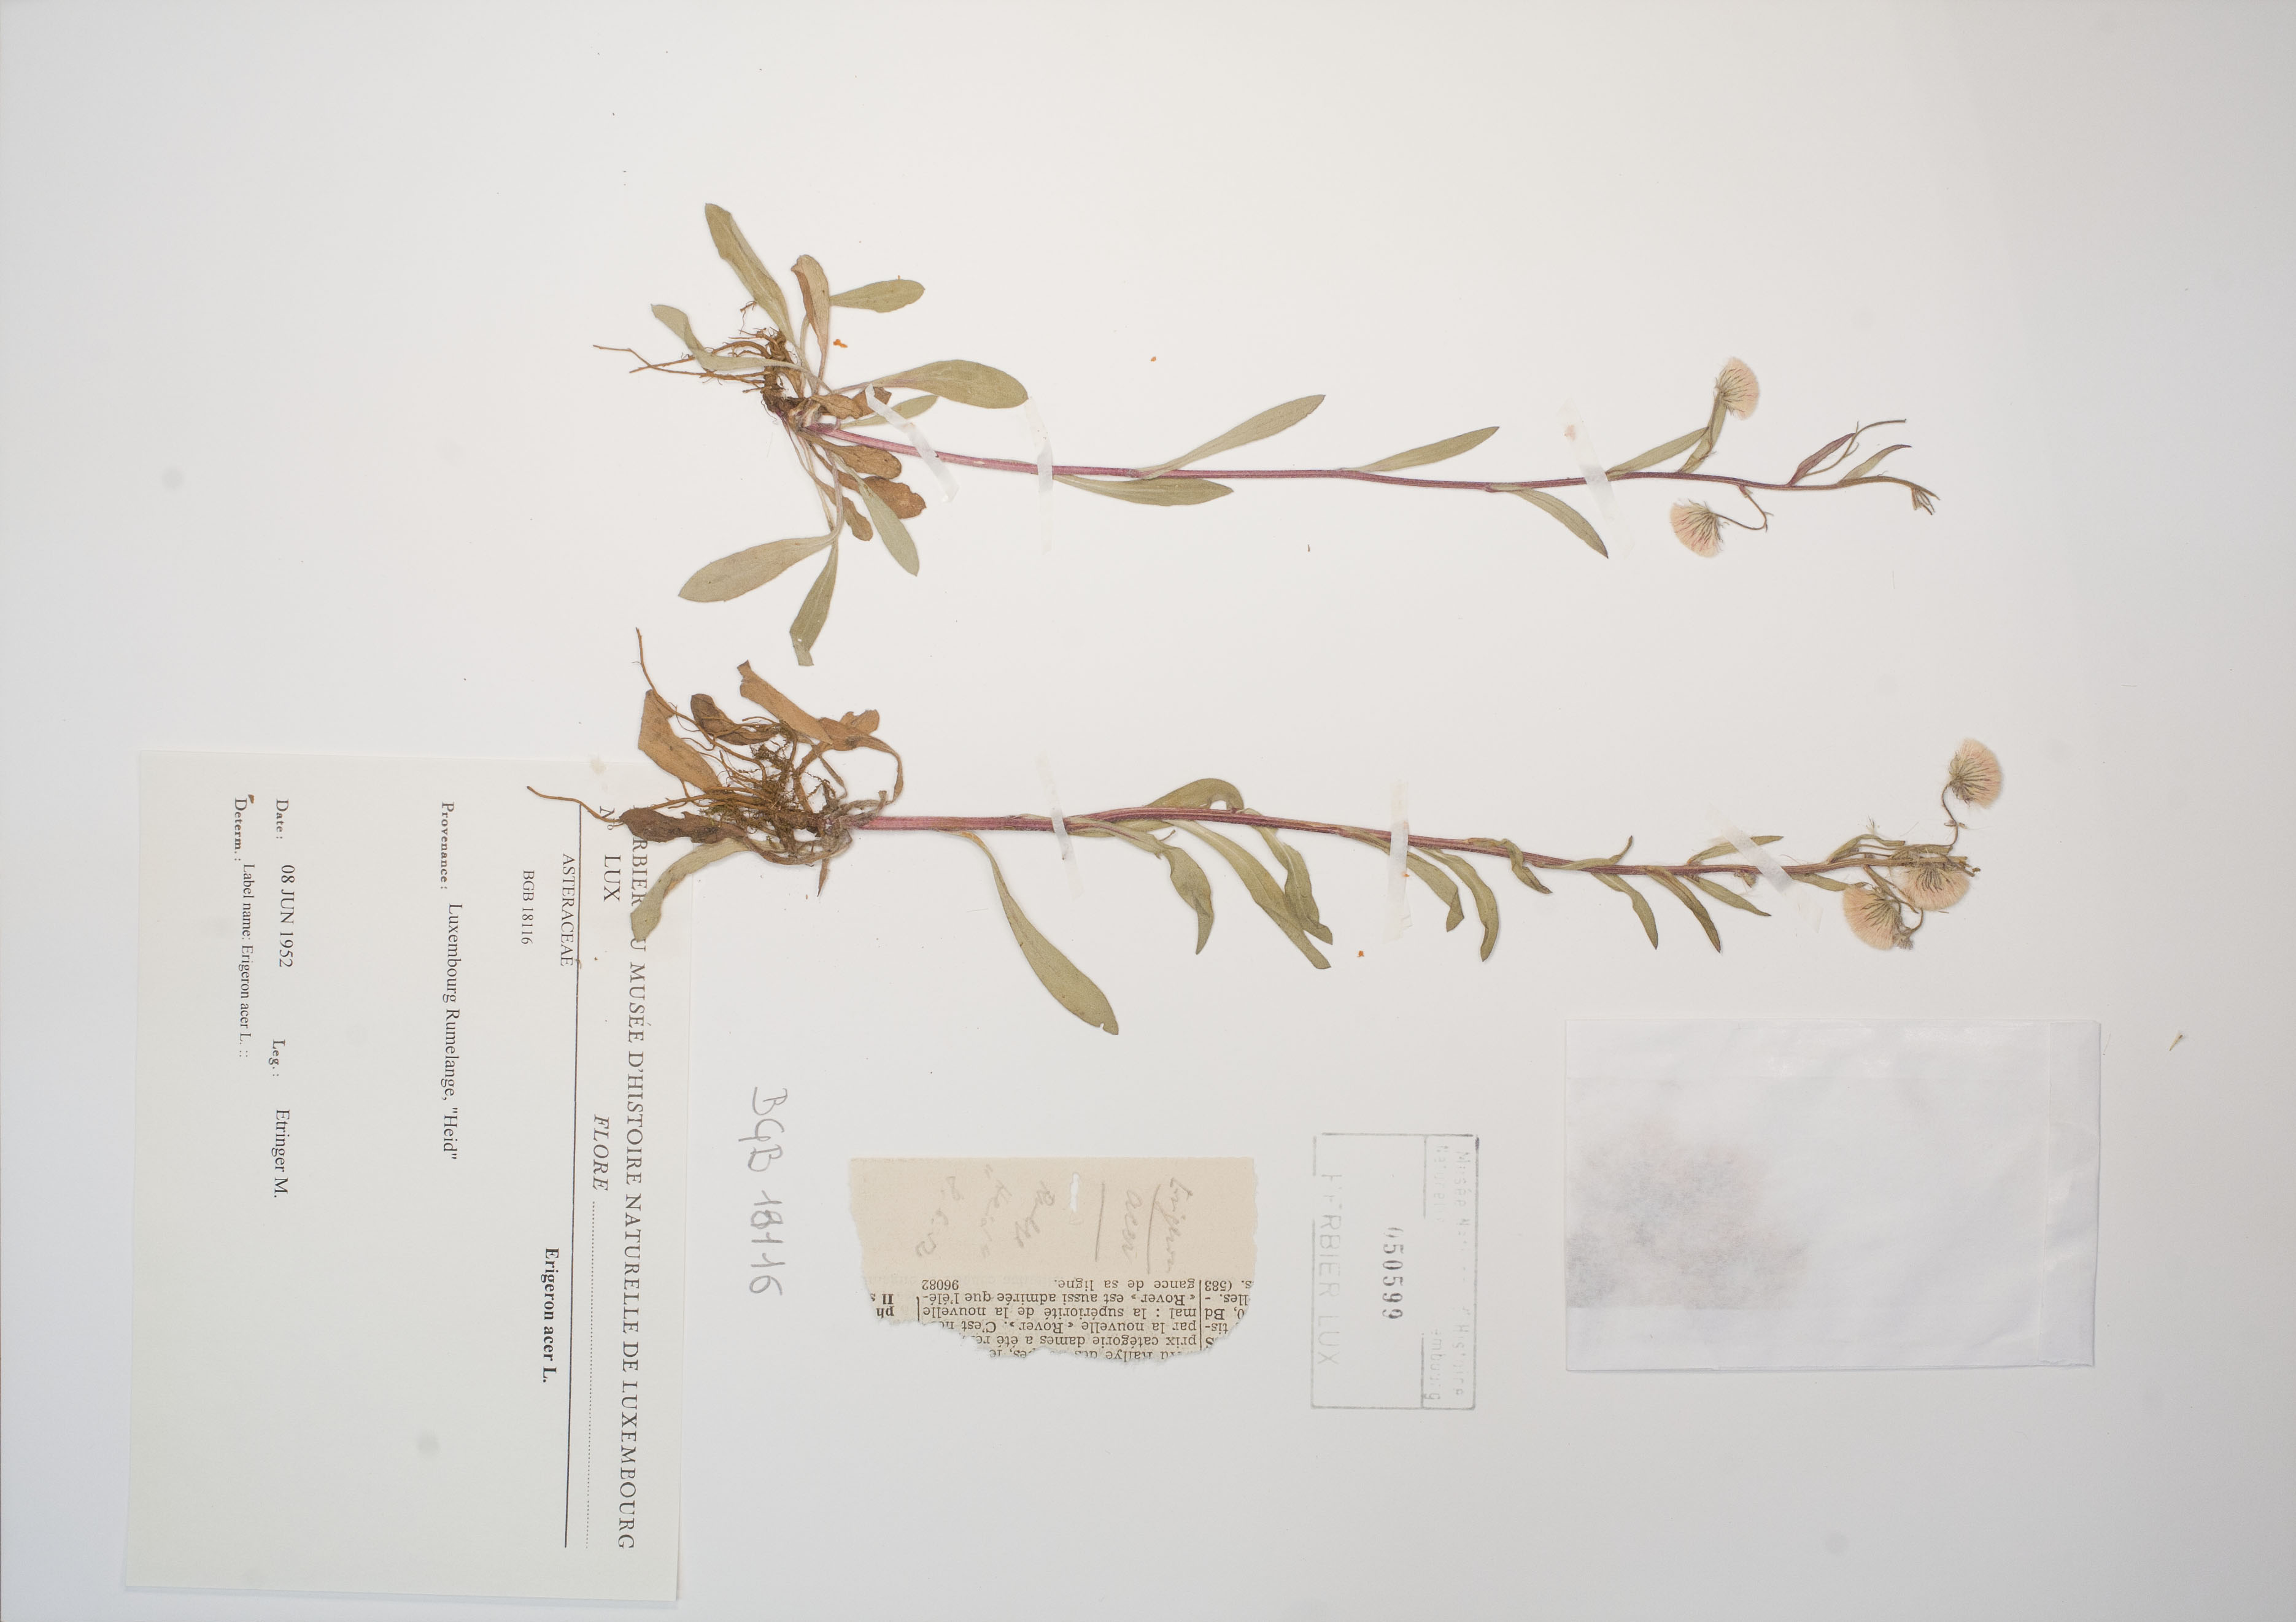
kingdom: Plantae
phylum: Tracheophyta
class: Magnoliopsida
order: Asterales
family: Asteraceae
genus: Erigeron
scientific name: Erigeron acer
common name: Blue fleabane
